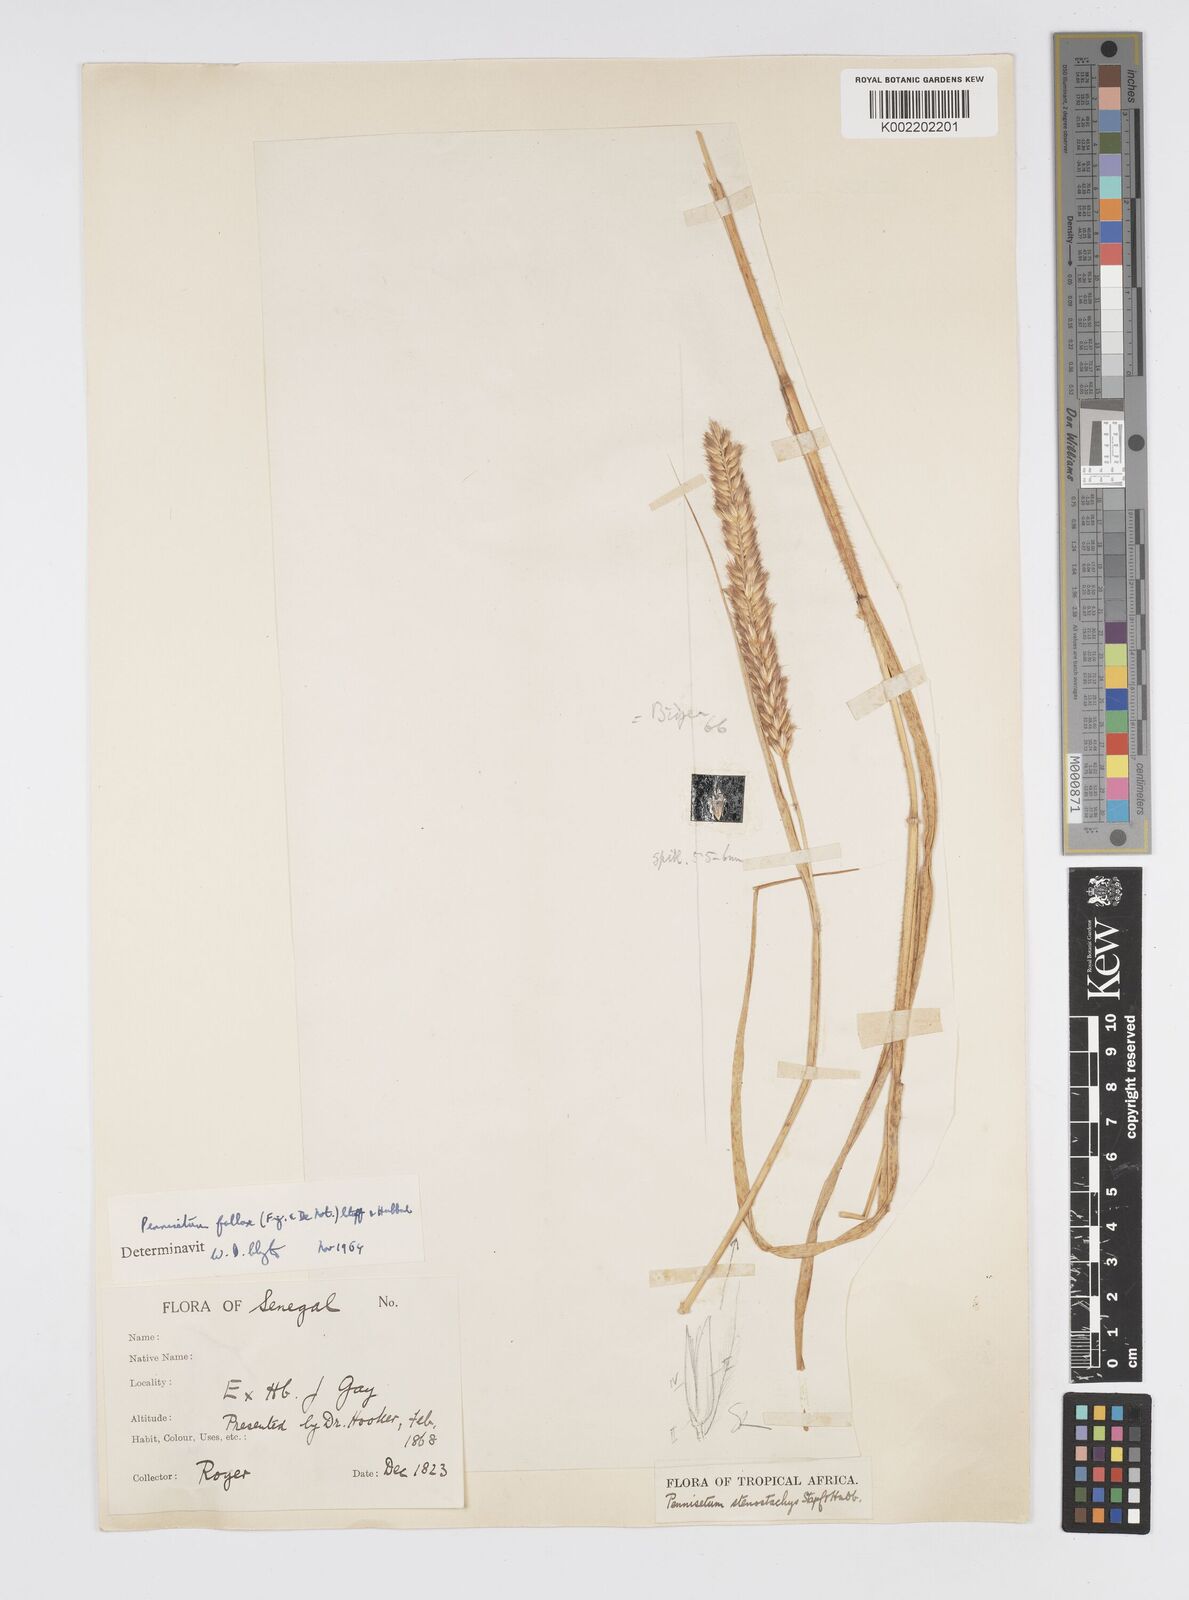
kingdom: Plantae
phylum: Tracheophyta
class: Liliopsida
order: Poales
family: Poaceae
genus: Cenchrus
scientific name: Cenchrus violaceus
